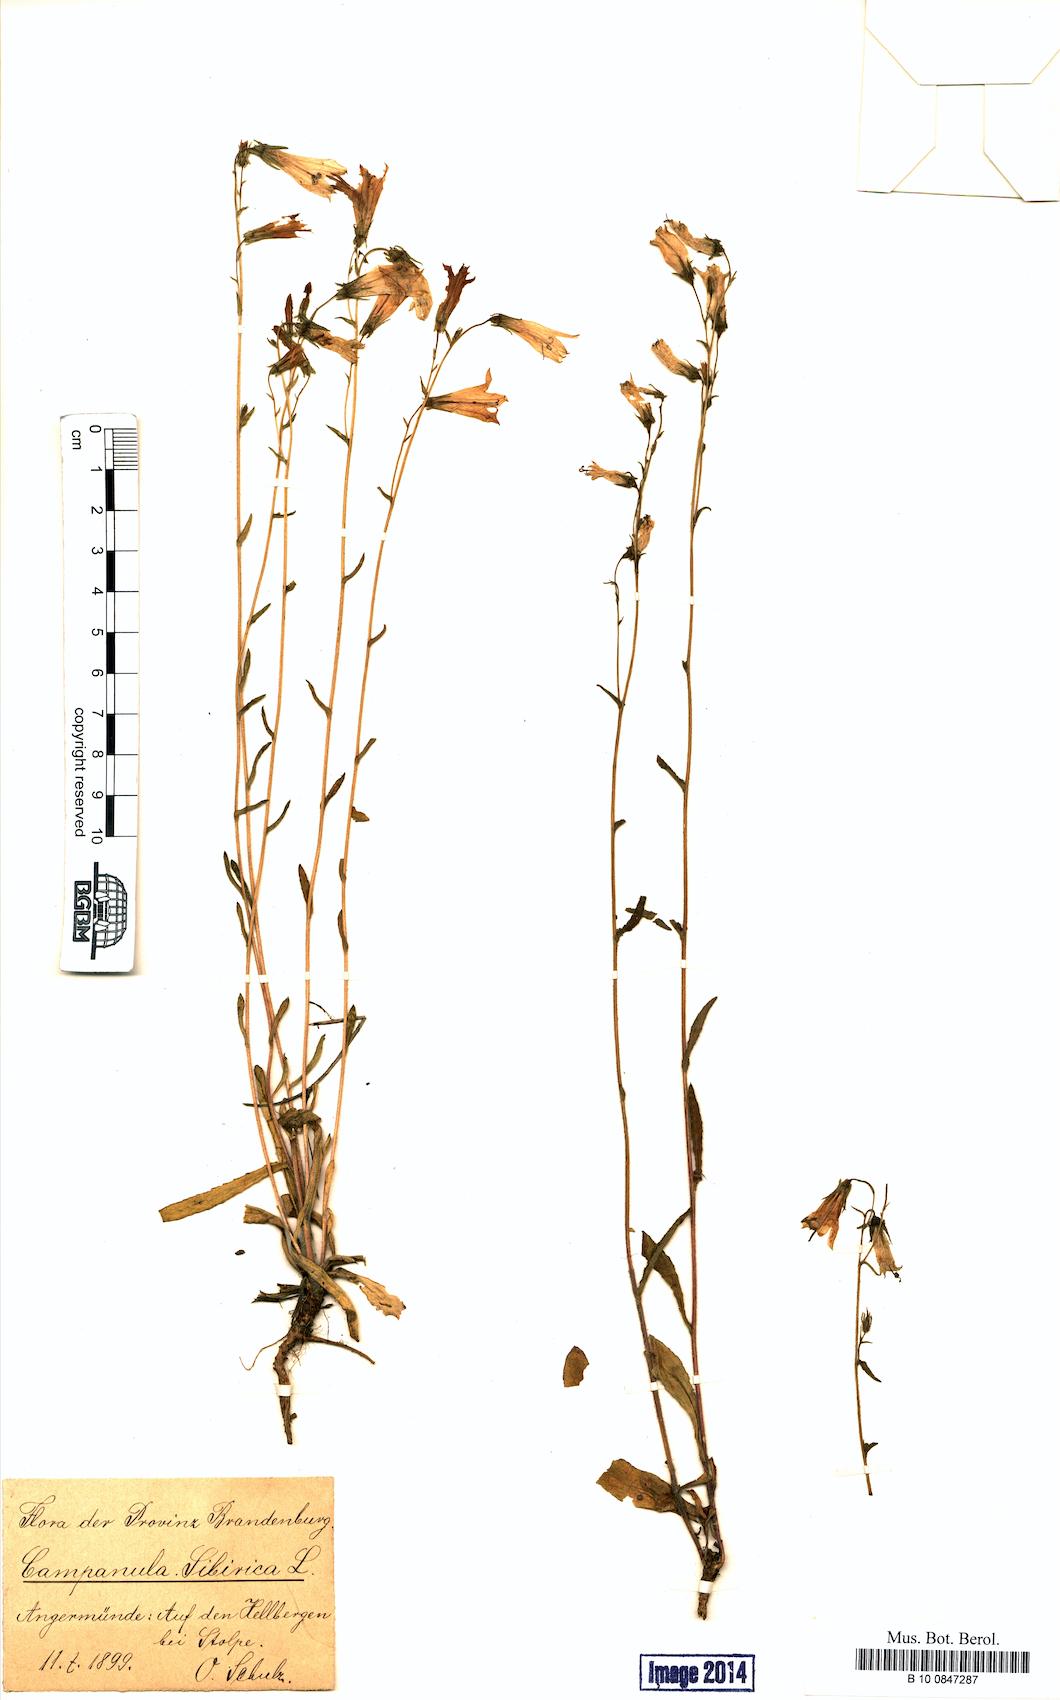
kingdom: Plantae
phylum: Tracheophyta
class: Magnoliopsida
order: Asterales
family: Campanulaceae
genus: Campanula
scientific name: Campanula sibirica
